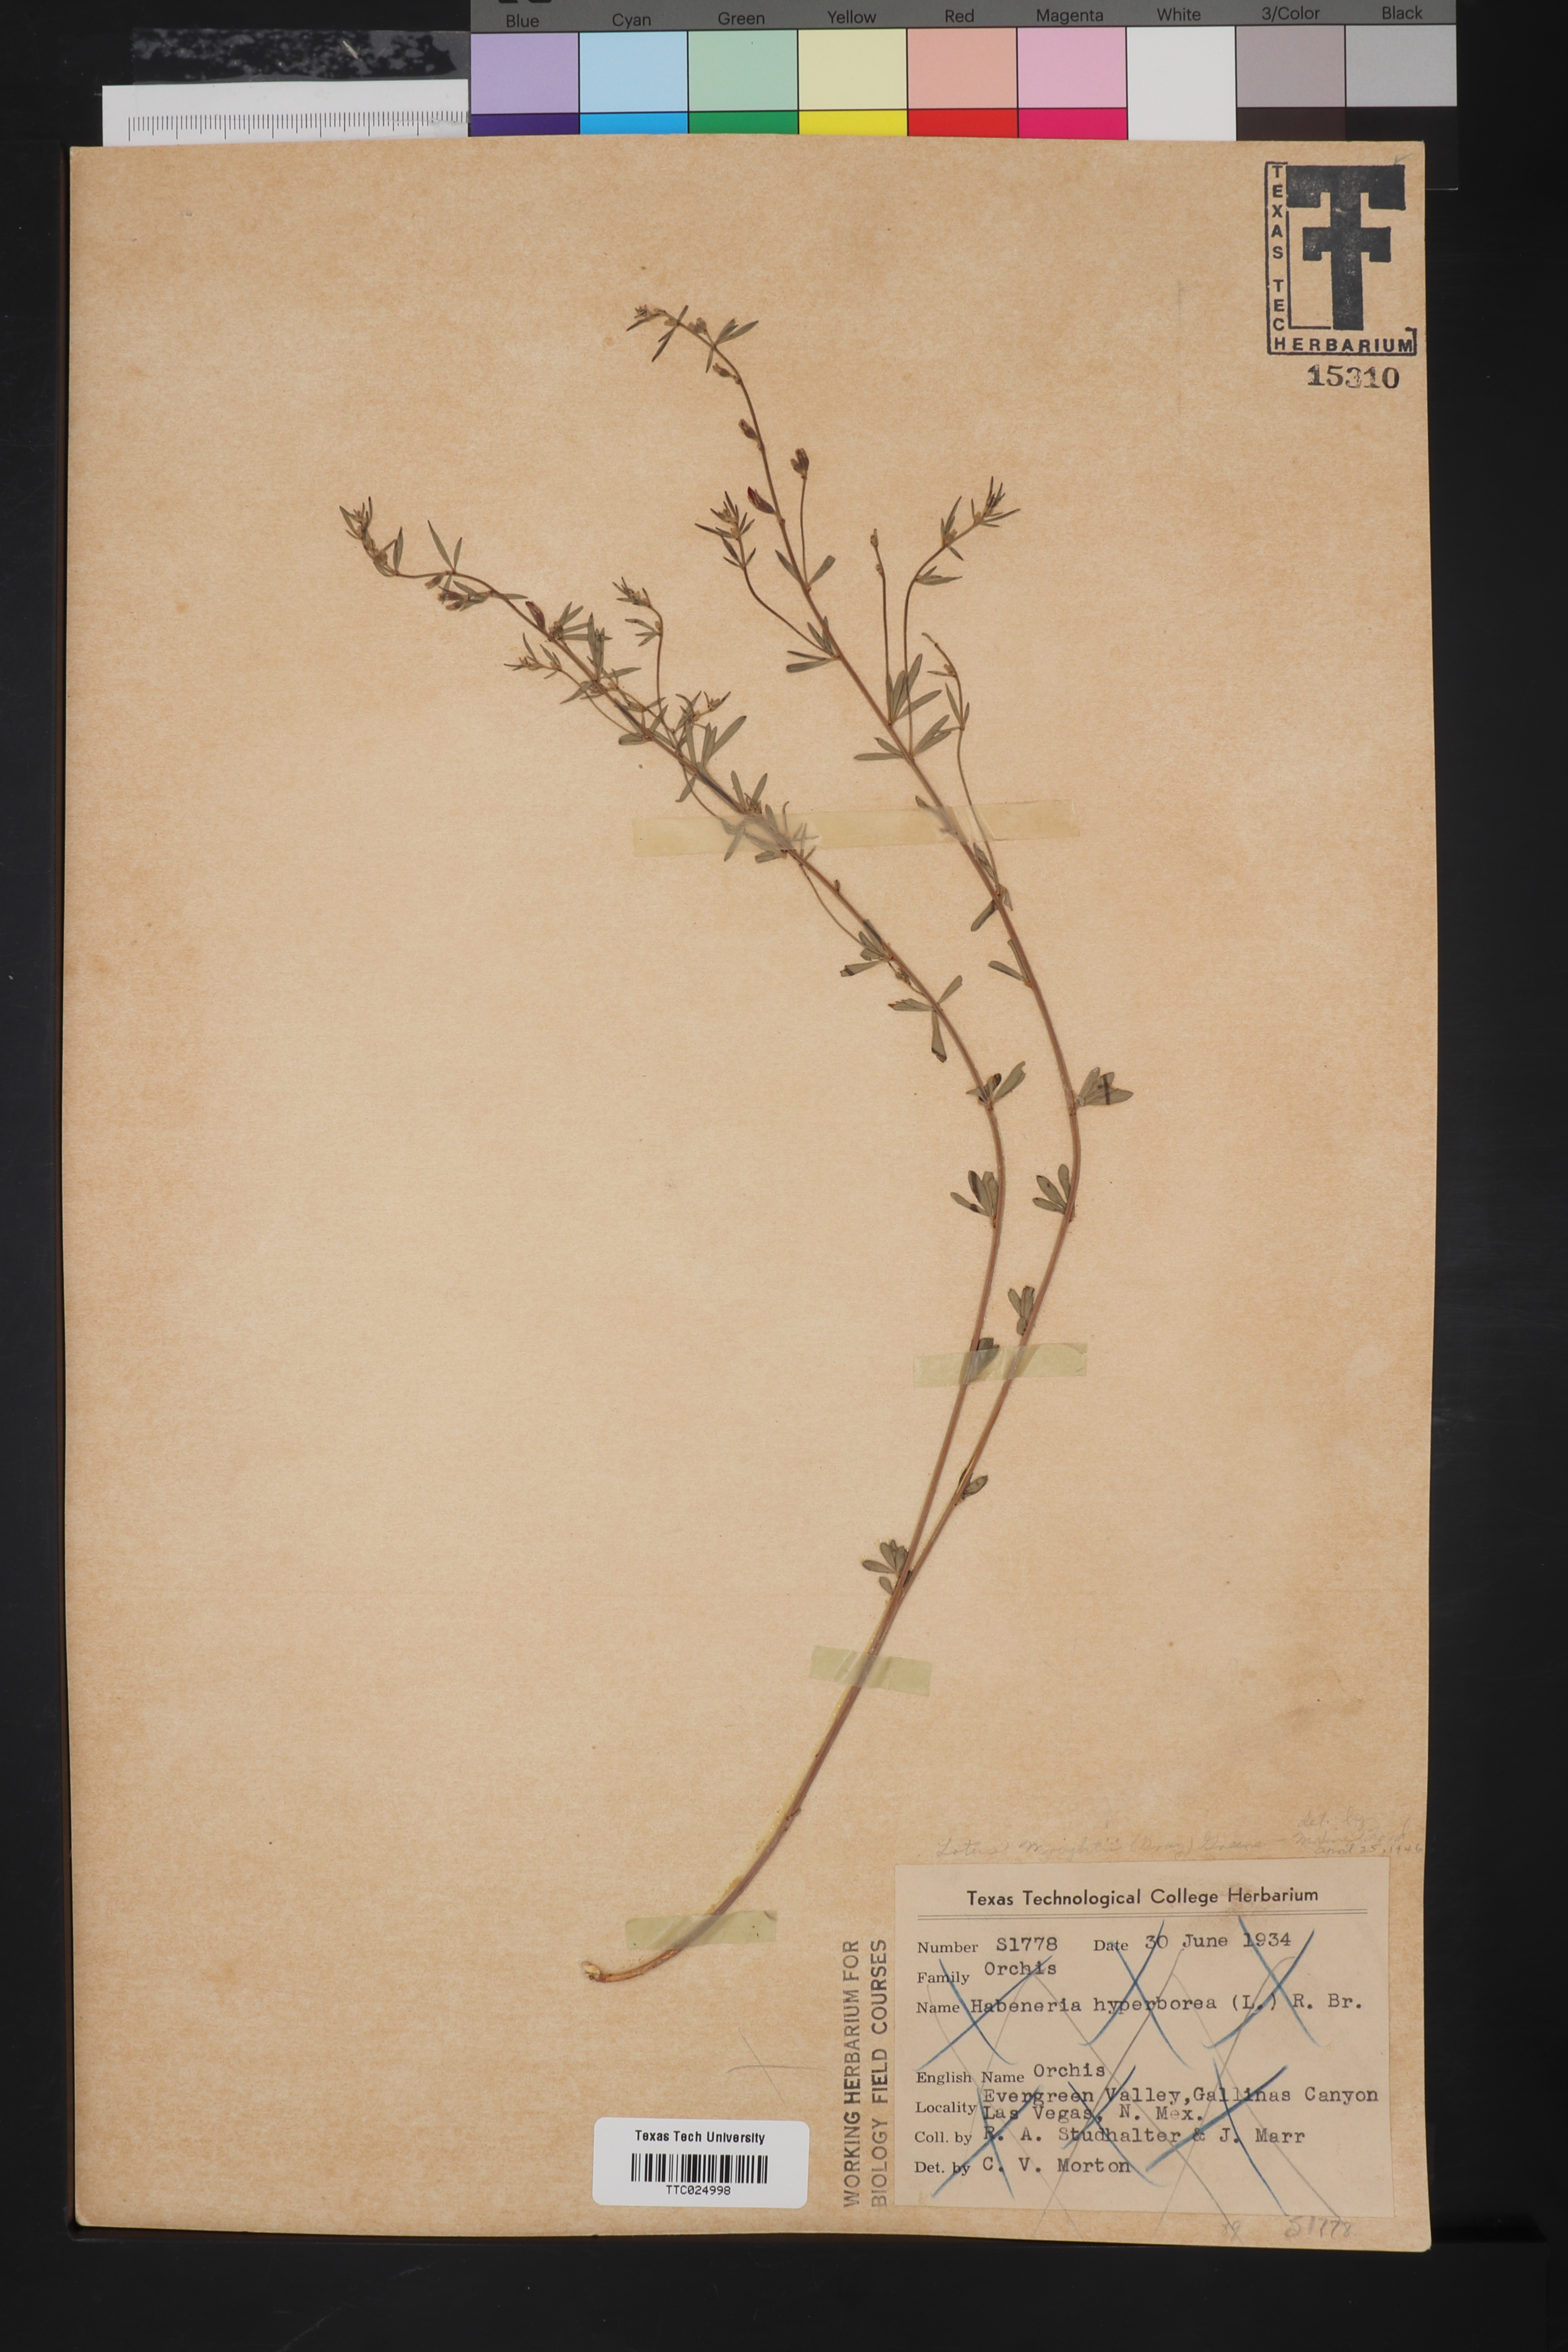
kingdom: Plantae
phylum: Tracheophyta
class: Magnoliopsida
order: Fabales
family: Fabaceae
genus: Acmispon
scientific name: Acmispon wrightii
